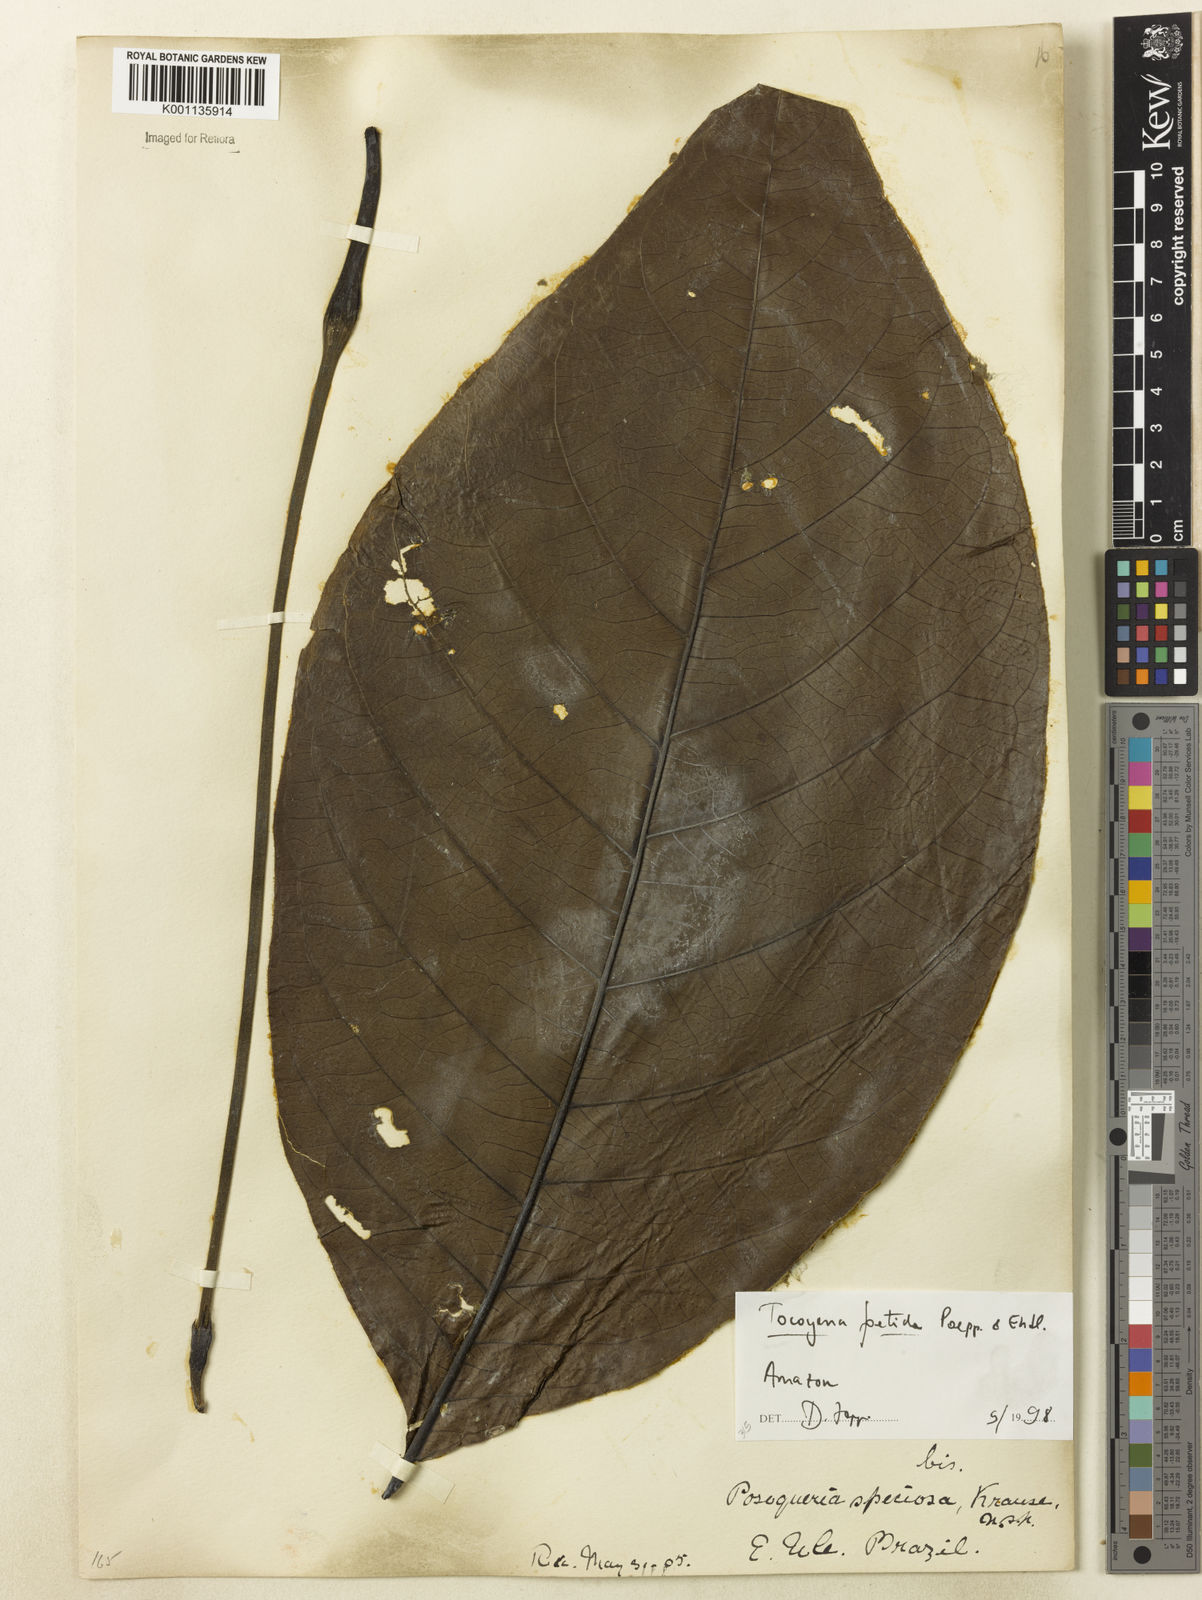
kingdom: Plantae
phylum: Tracheophyta
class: Magnoliopsida
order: Gentianales
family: Rubiaceae
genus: Tocoyena
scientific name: Tocoyena foetida
